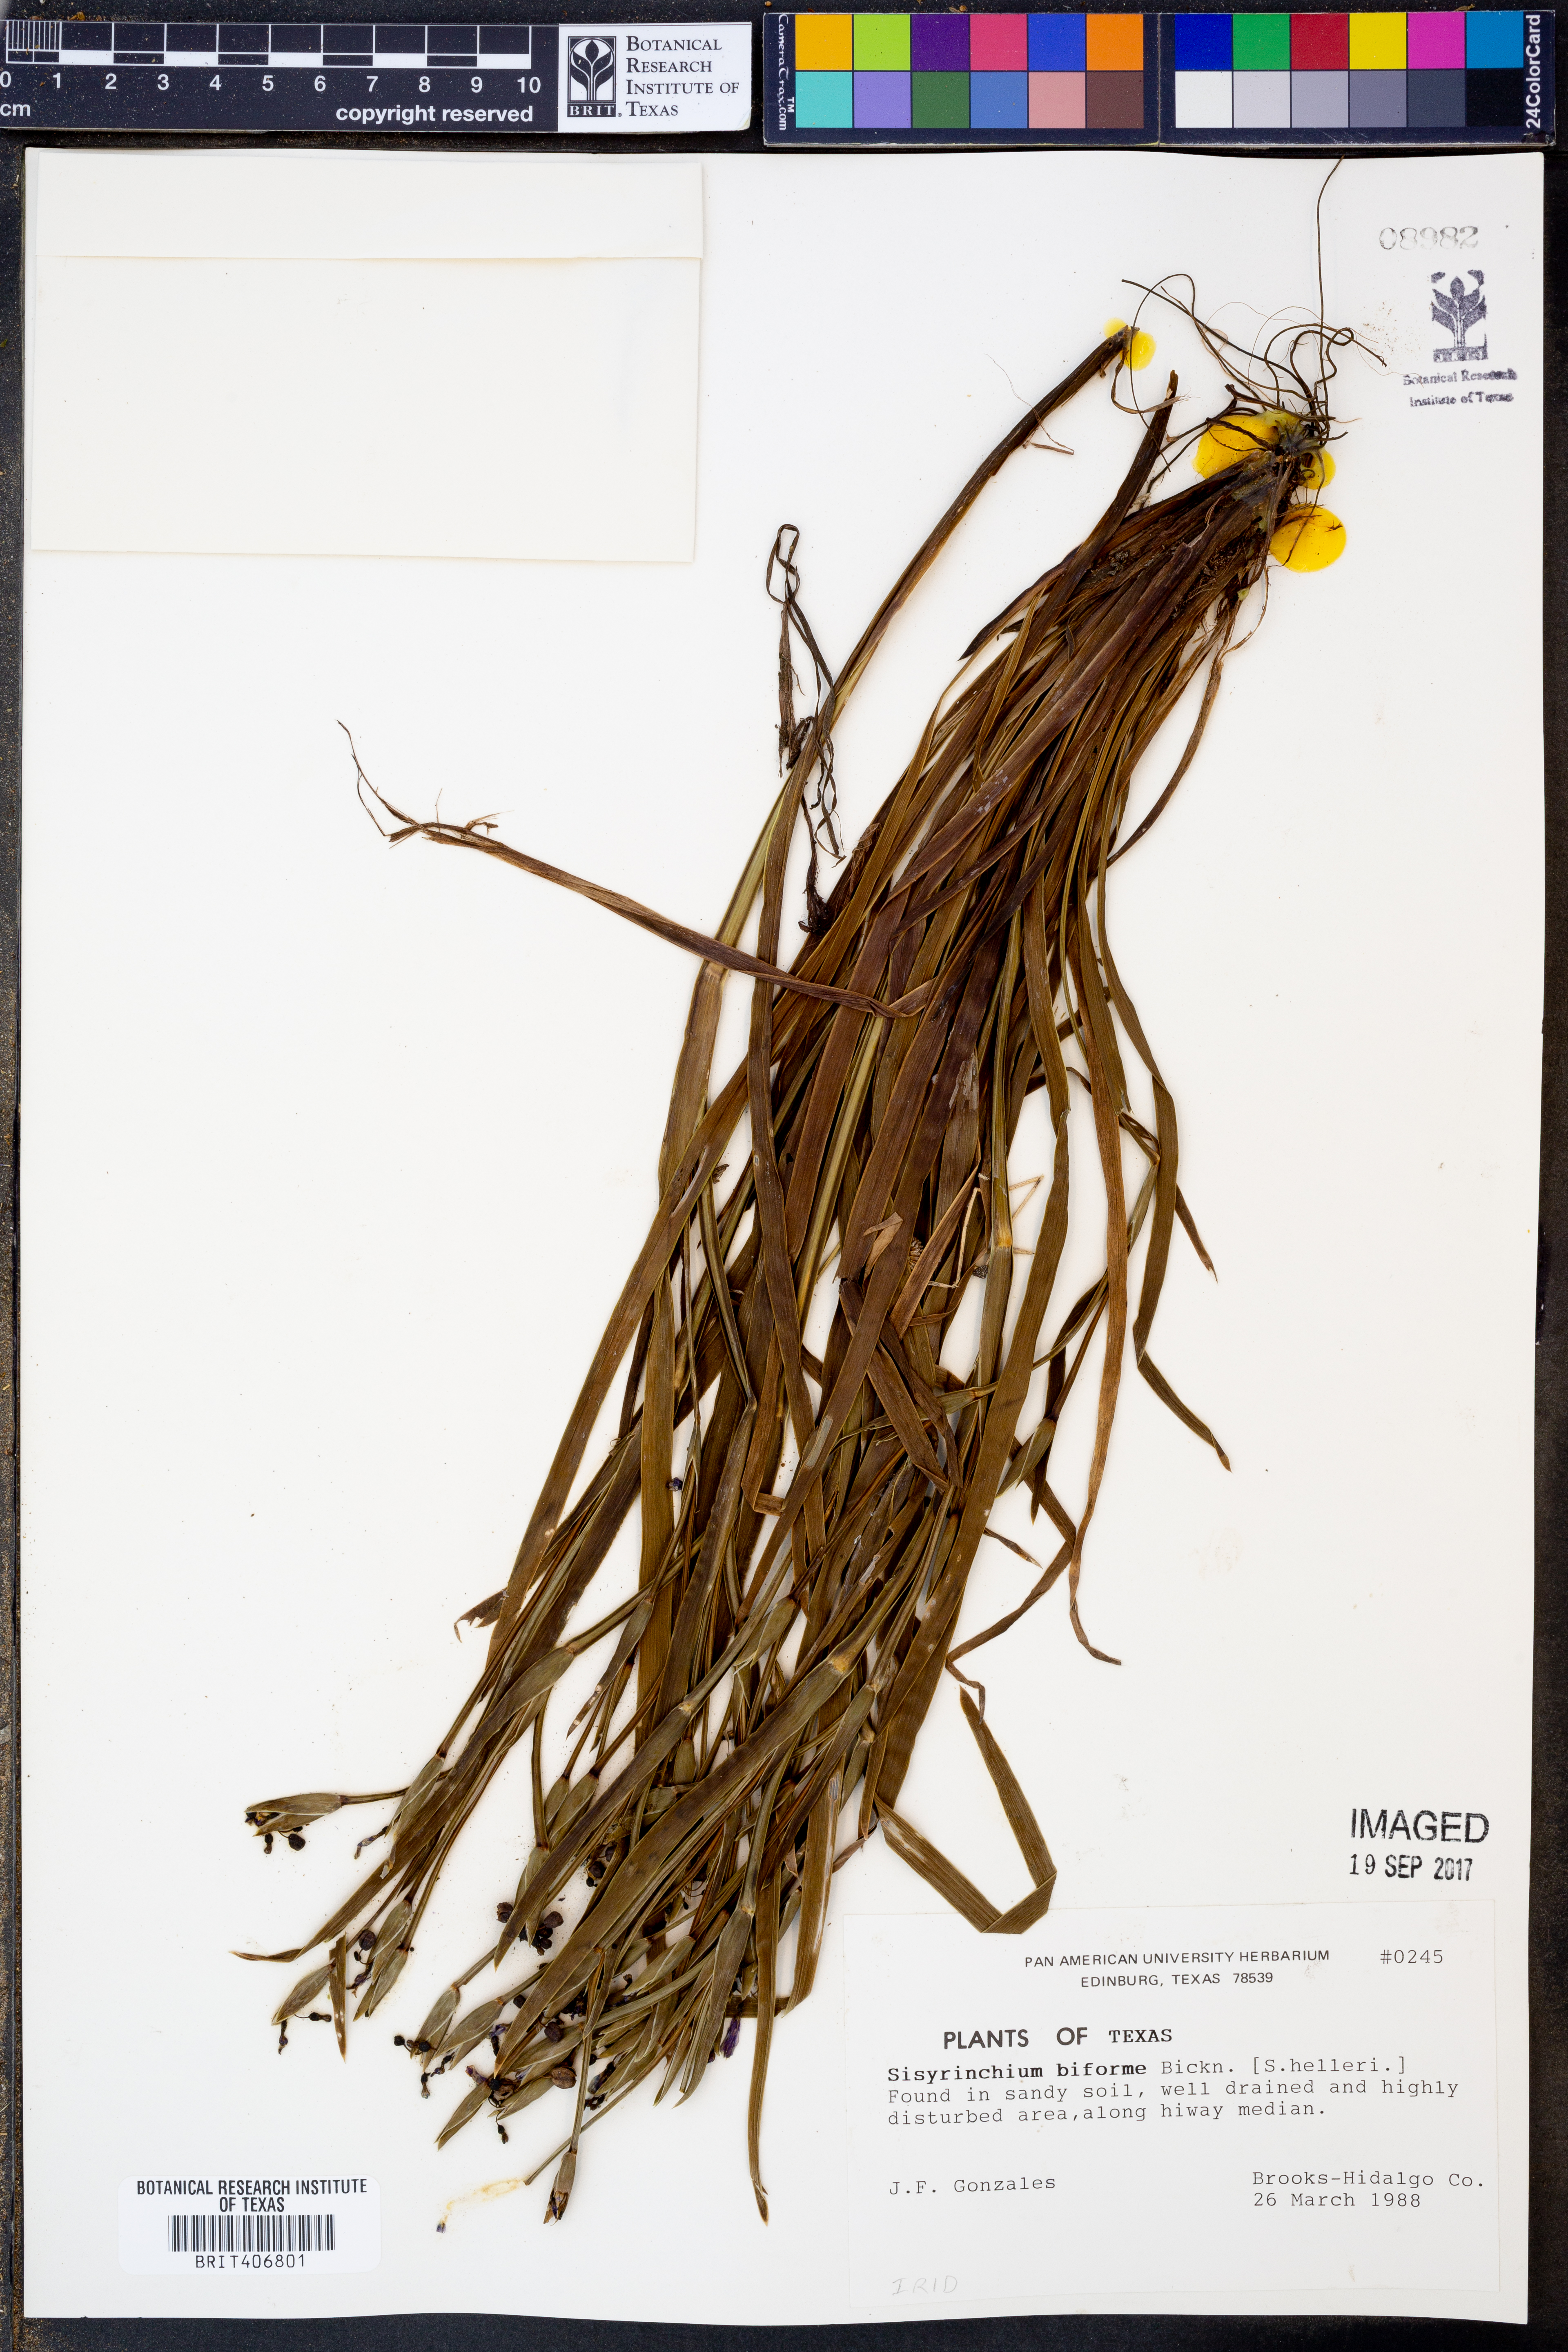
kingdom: Plantae
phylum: Tracheophyta
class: Liliopsida
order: Asparagales
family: Iridaceae
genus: Sisyrinchium
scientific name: Sisyrinchium biforme
